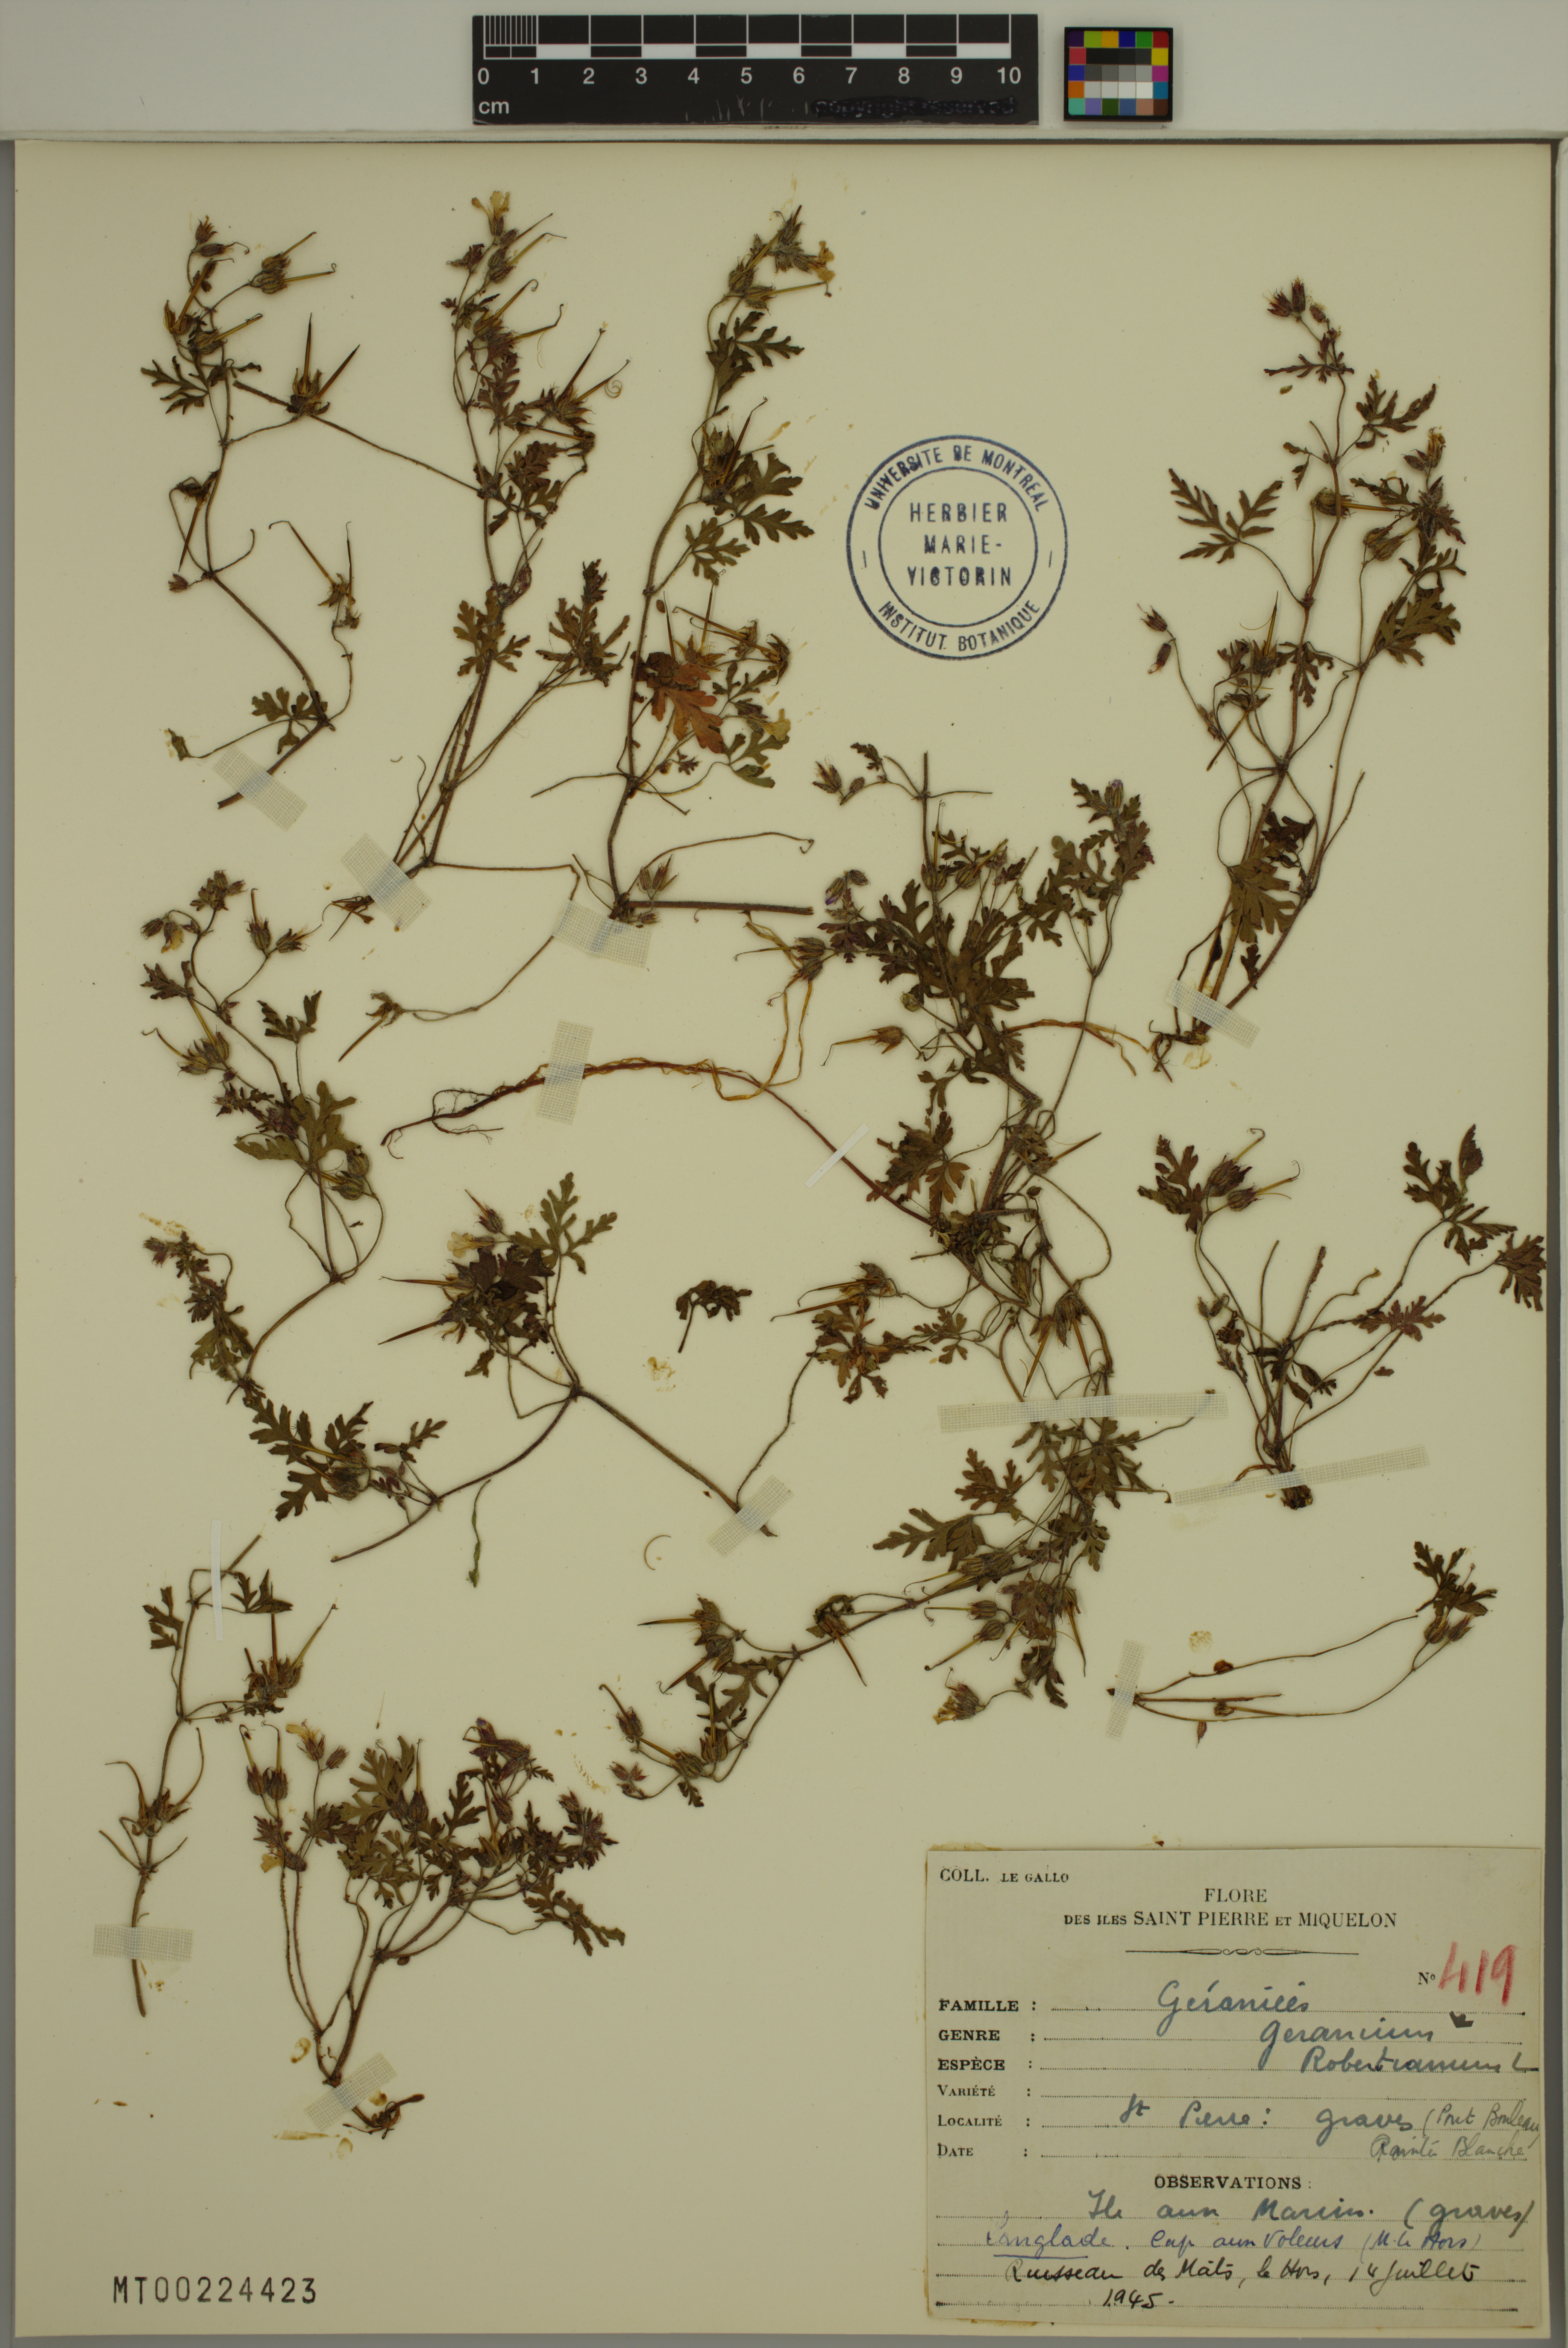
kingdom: Plantae
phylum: Tracheophyta
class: Magnoliopsida
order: Geraniales
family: Geraniaceae
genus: Geranium
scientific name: Geranium robertianum
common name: Herb-robert
